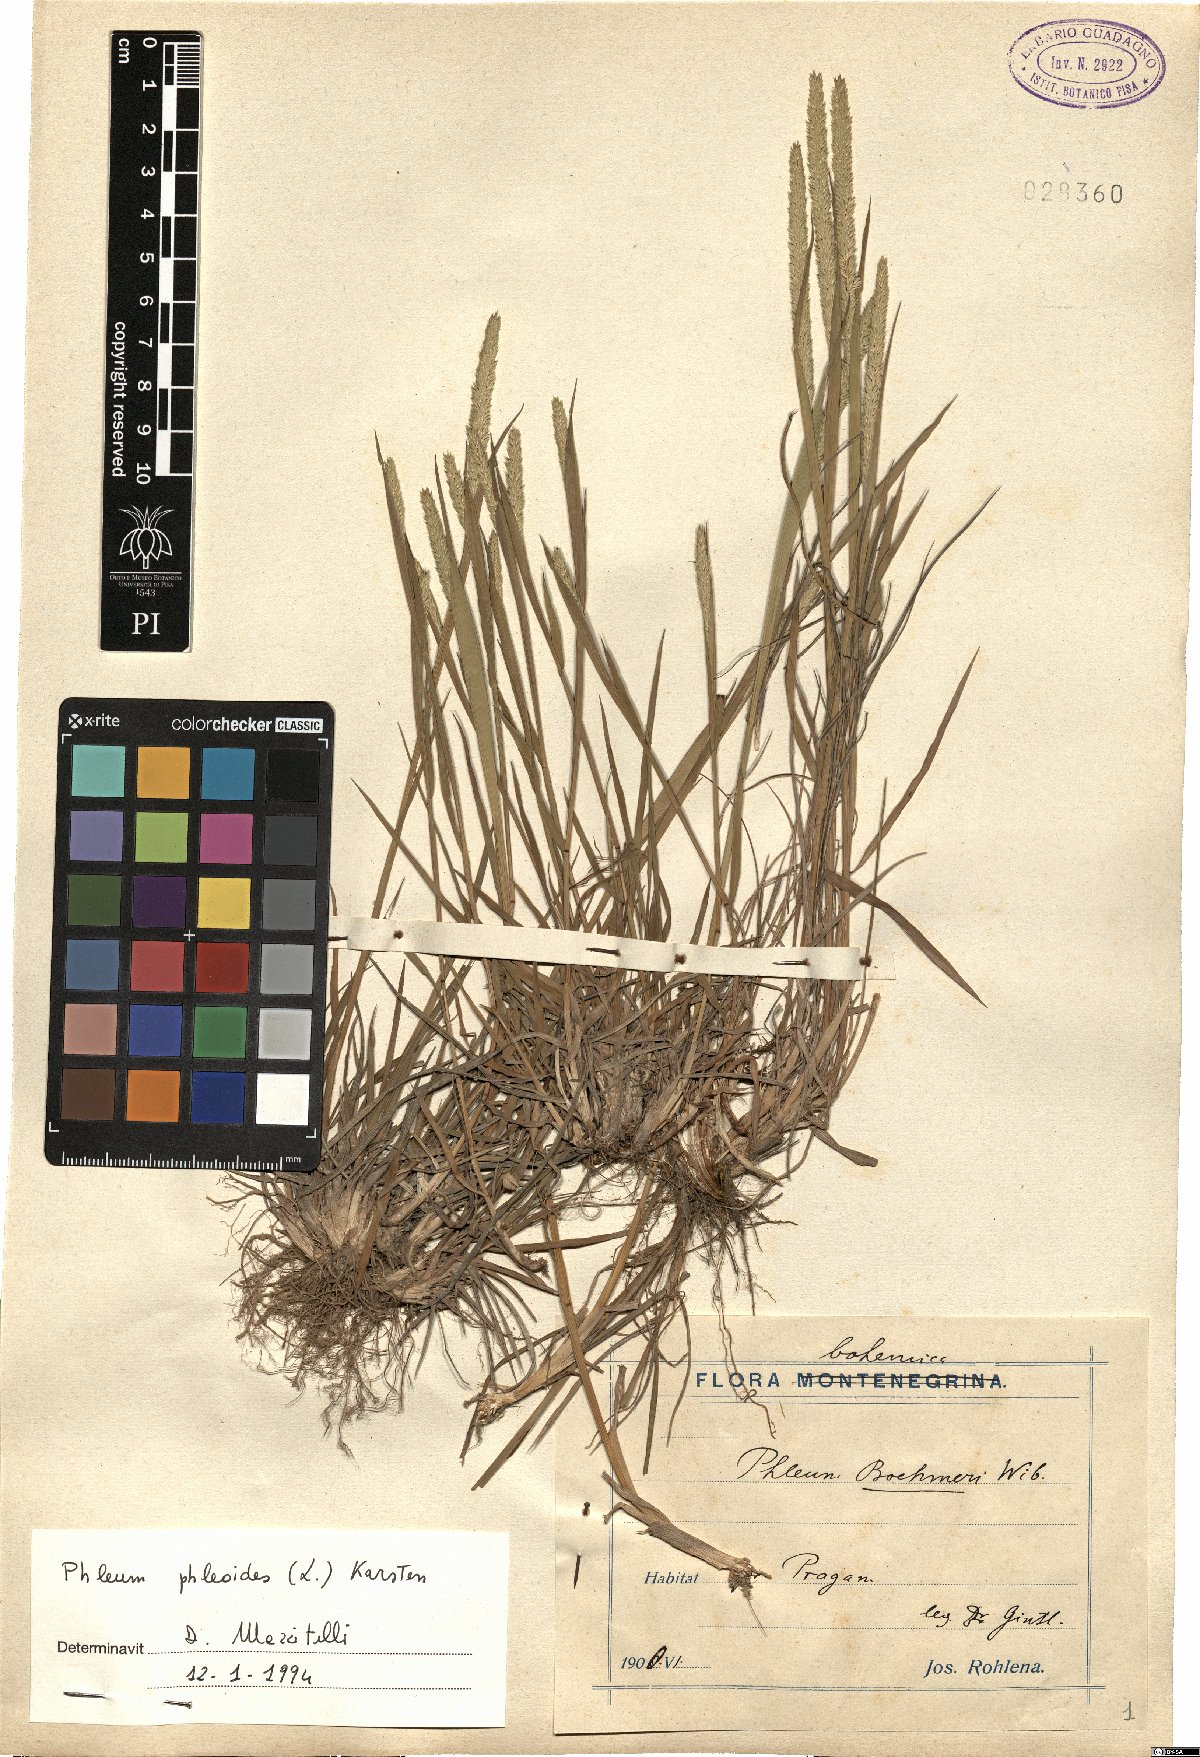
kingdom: Plantae
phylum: Tracheophyta
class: Liliopsida
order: Poales
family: Poaceae
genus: Phleum
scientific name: Phleum phleoides
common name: Purple-stem cat's-tail
